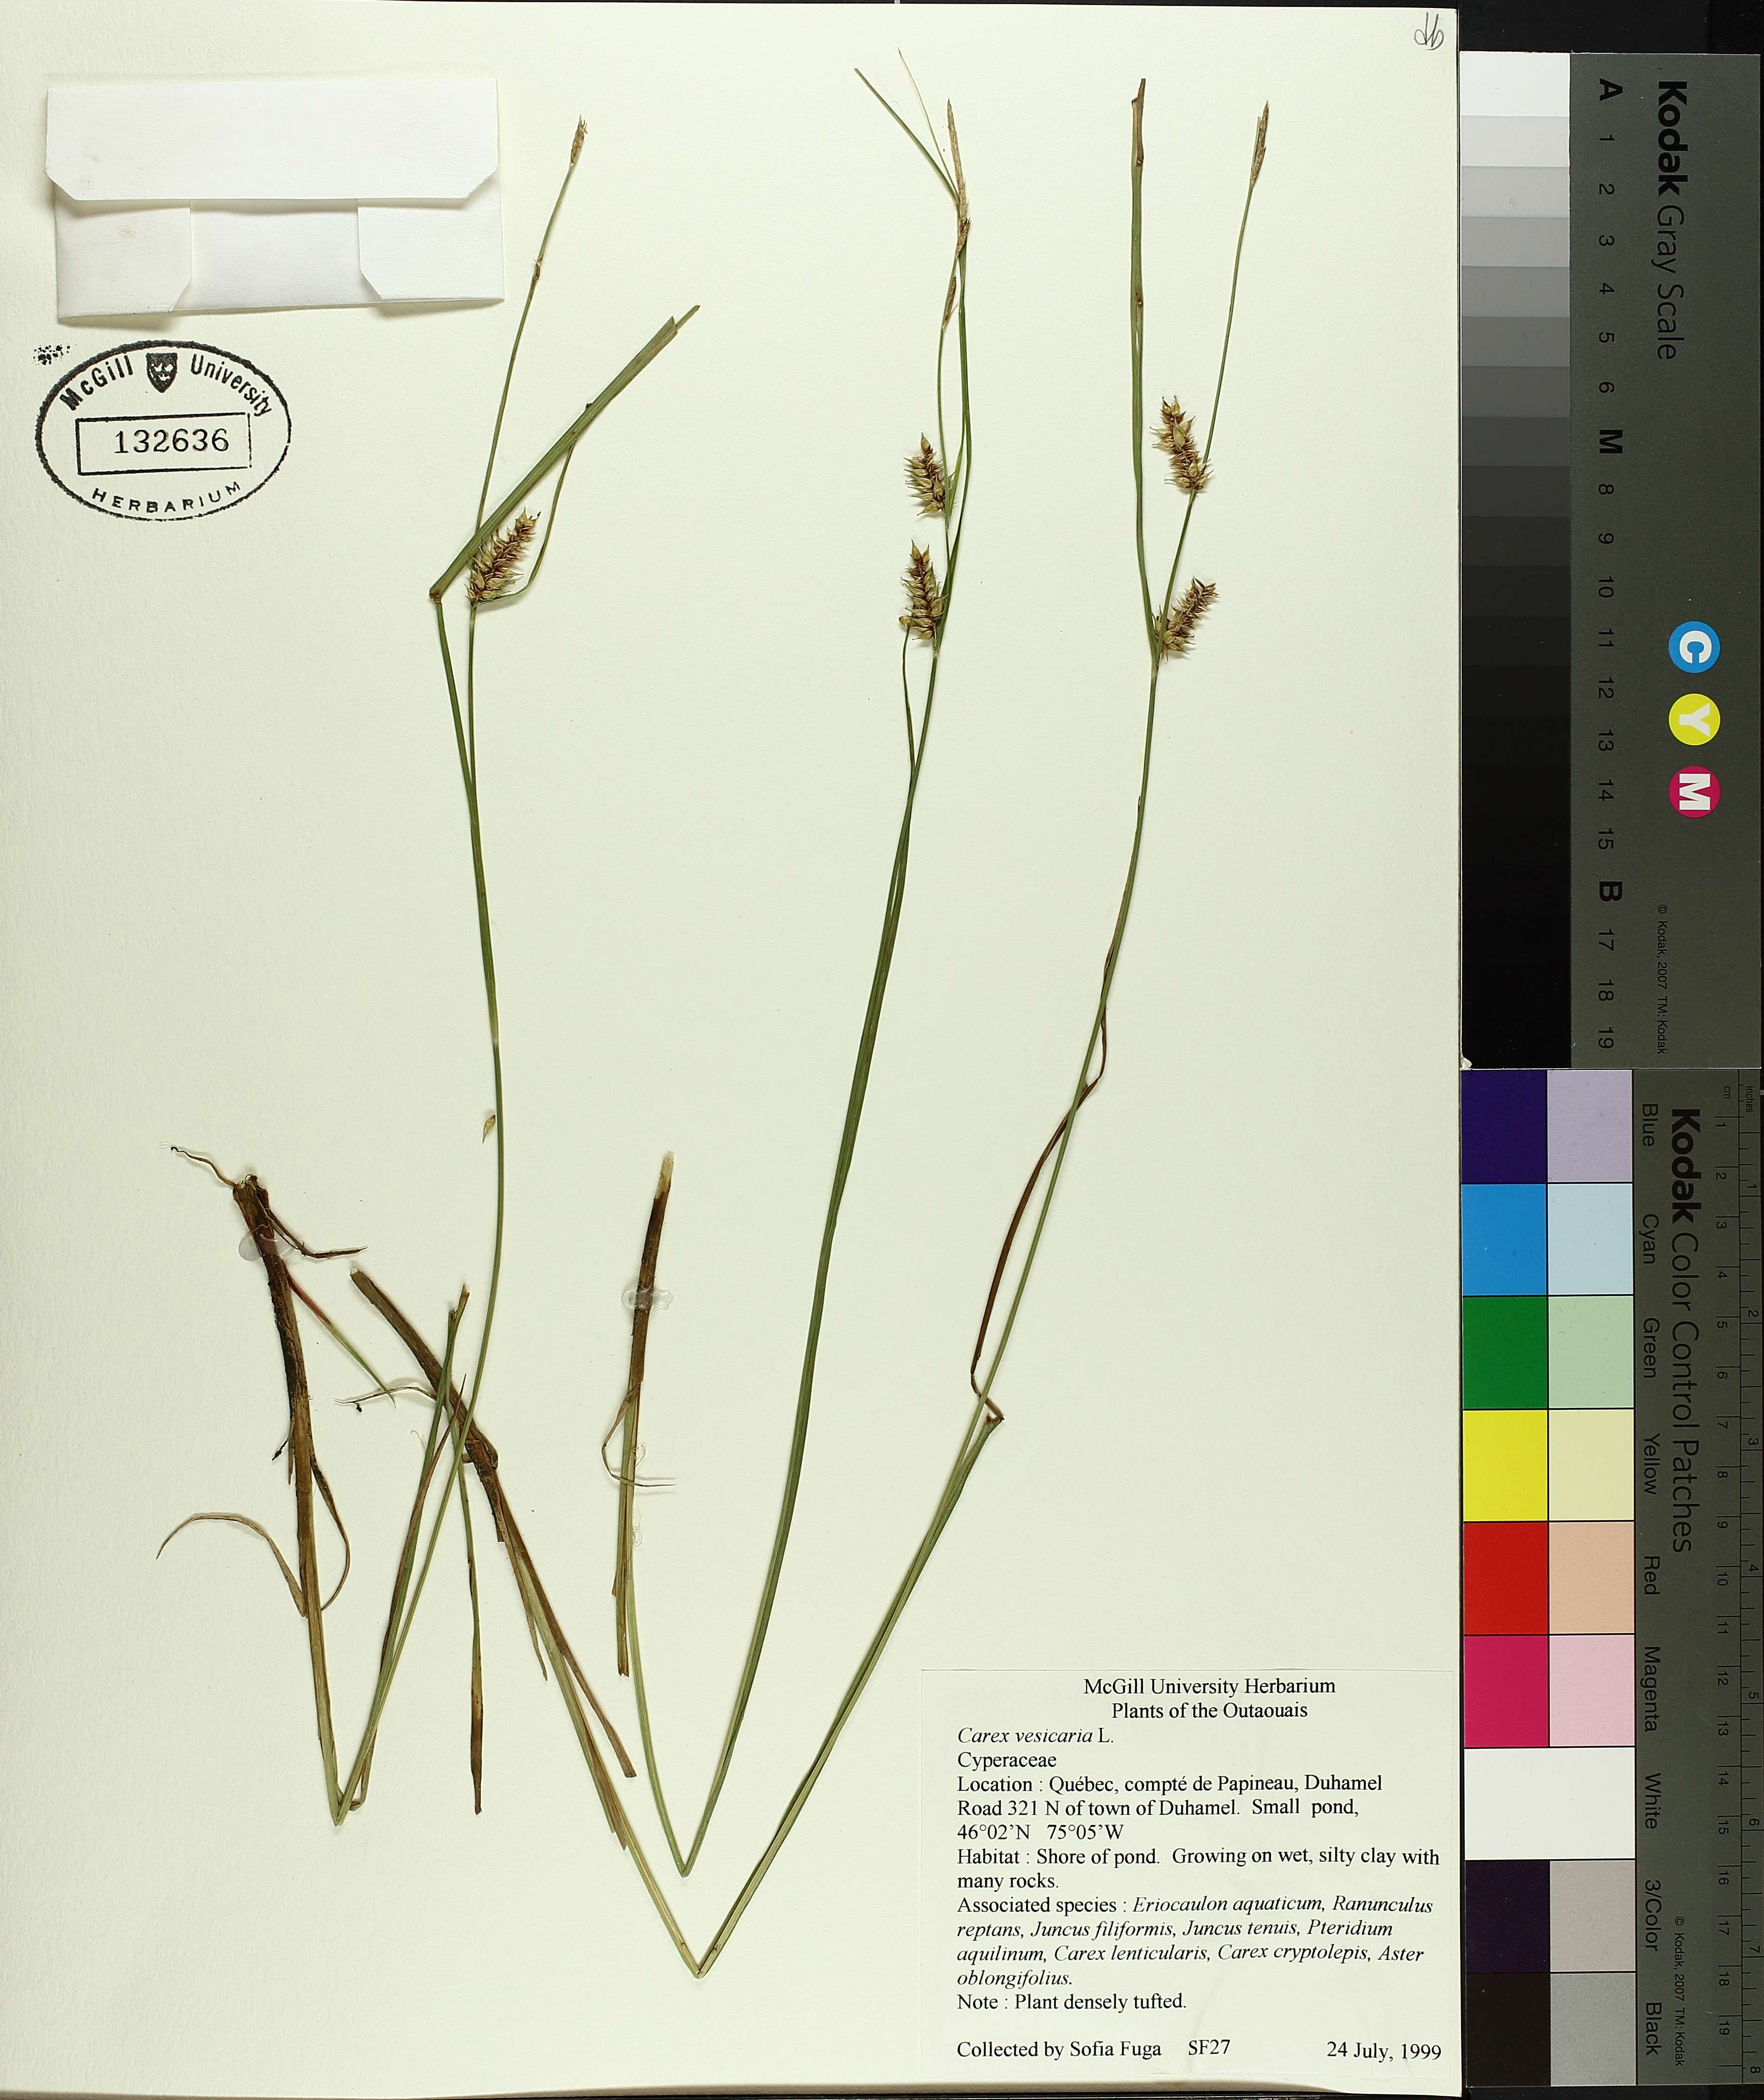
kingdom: Plantae
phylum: Tracheophyta
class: Liliopsida
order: Poales
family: Cyperaceae
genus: Carex
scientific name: Carex vesicaria
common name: Bladder-sedge
